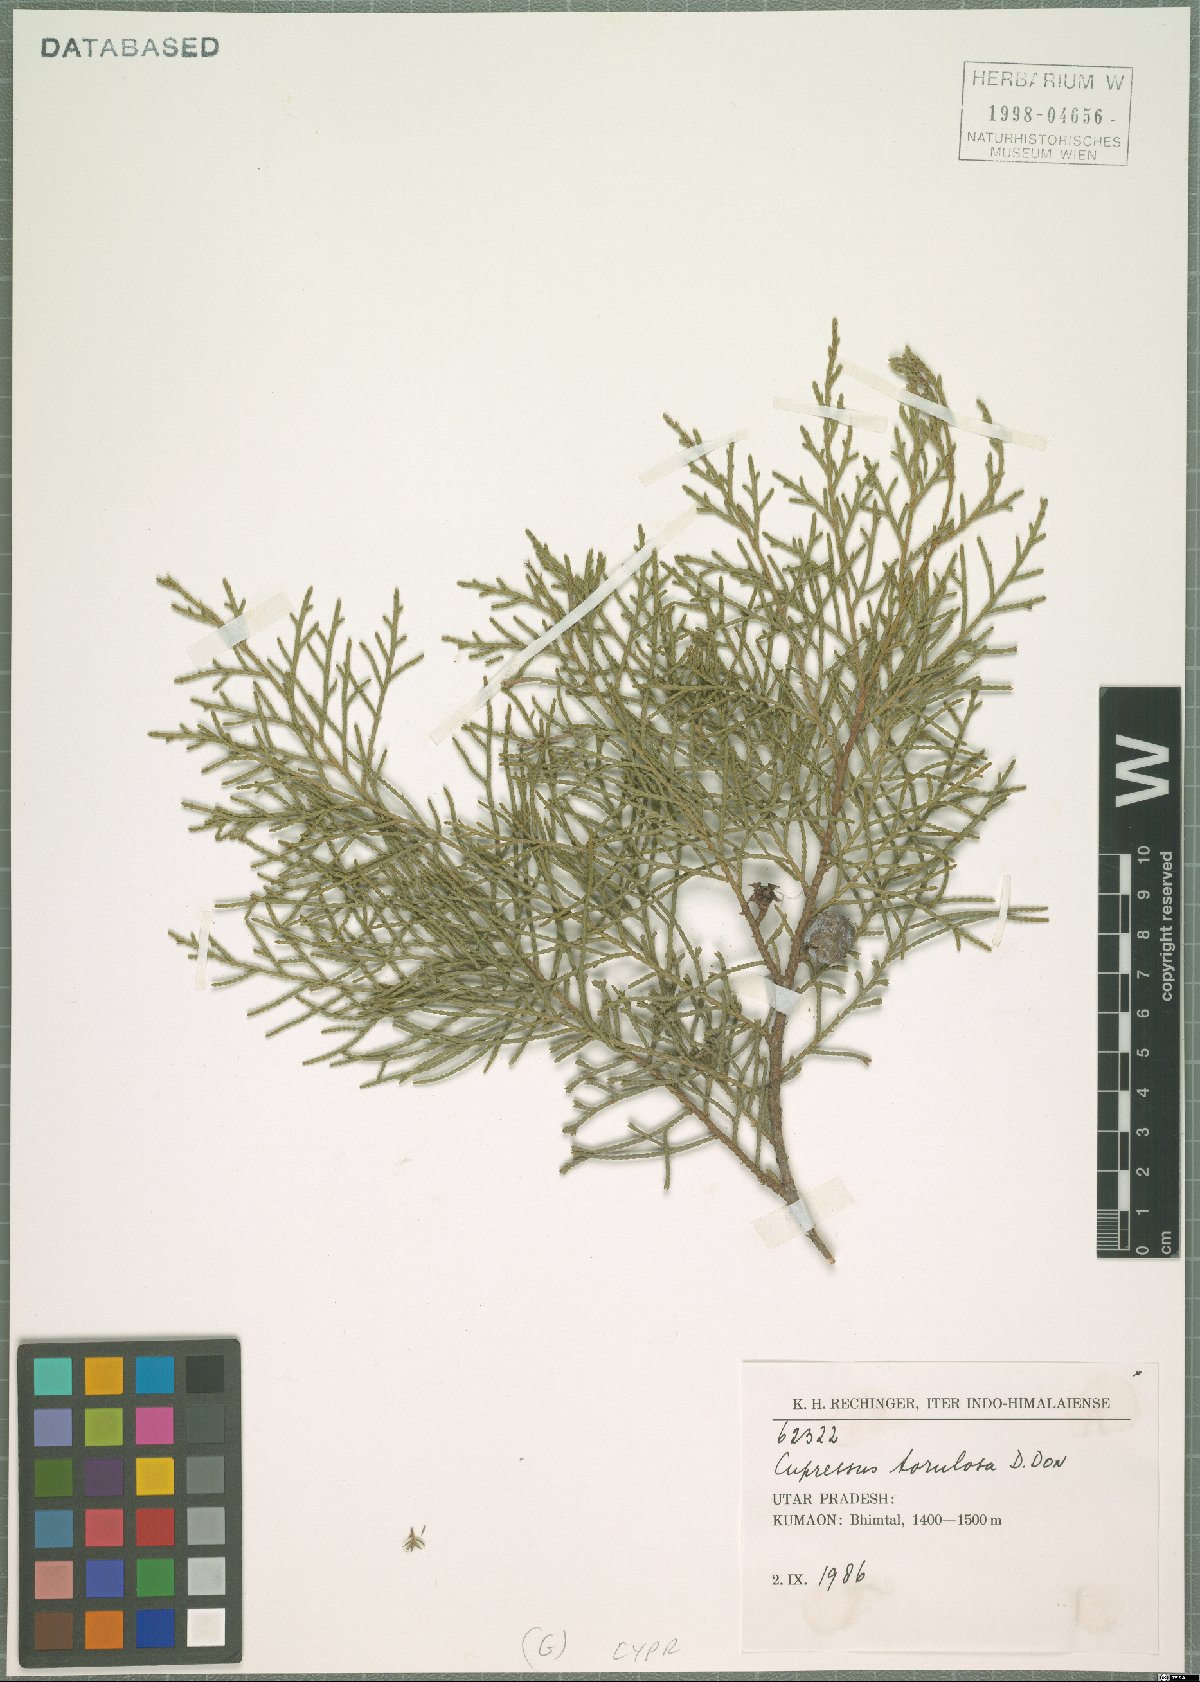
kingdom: Plantae
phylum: Tracheophyta
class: Pinopsida
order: Pinales
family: Cupressaceae
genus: Cupressus
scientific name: Cupressus torulosa
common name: Himalayan cypress
